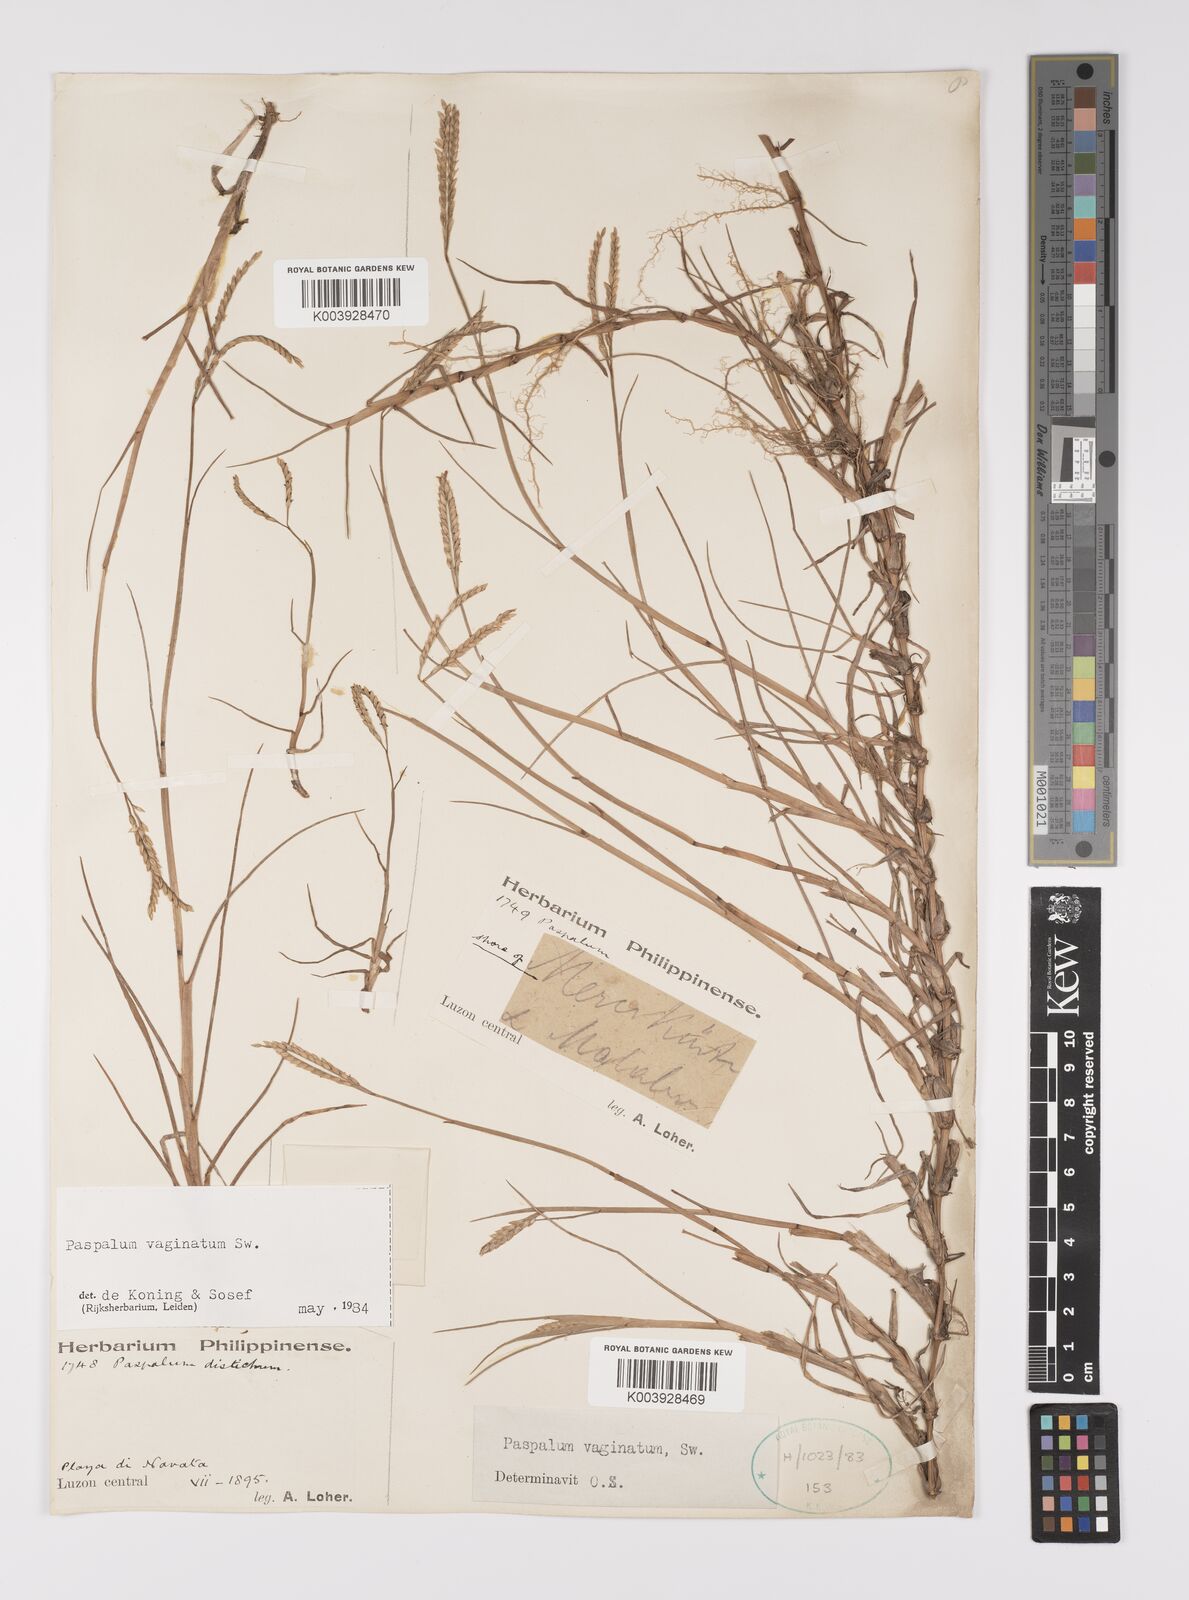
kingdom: Plantae
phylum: Tracheophyta
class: Liliopsida
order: Poales
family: Poaceae
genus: Paspalum
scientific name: Paspalum vaginatum
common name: Seashore paspalum
